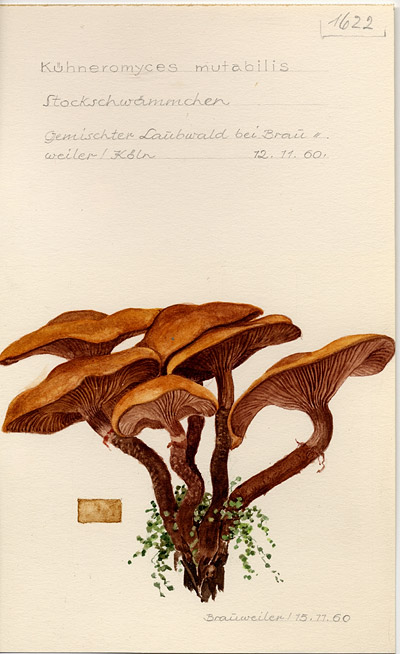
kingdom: Fungi
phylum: Basidiomycota
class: Agaricomycetes
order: Agaricales
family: Strophariaceae
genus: Kuehneromyces
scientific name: Kuehneromyces mutabilis
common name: Sheathed woodtuft
